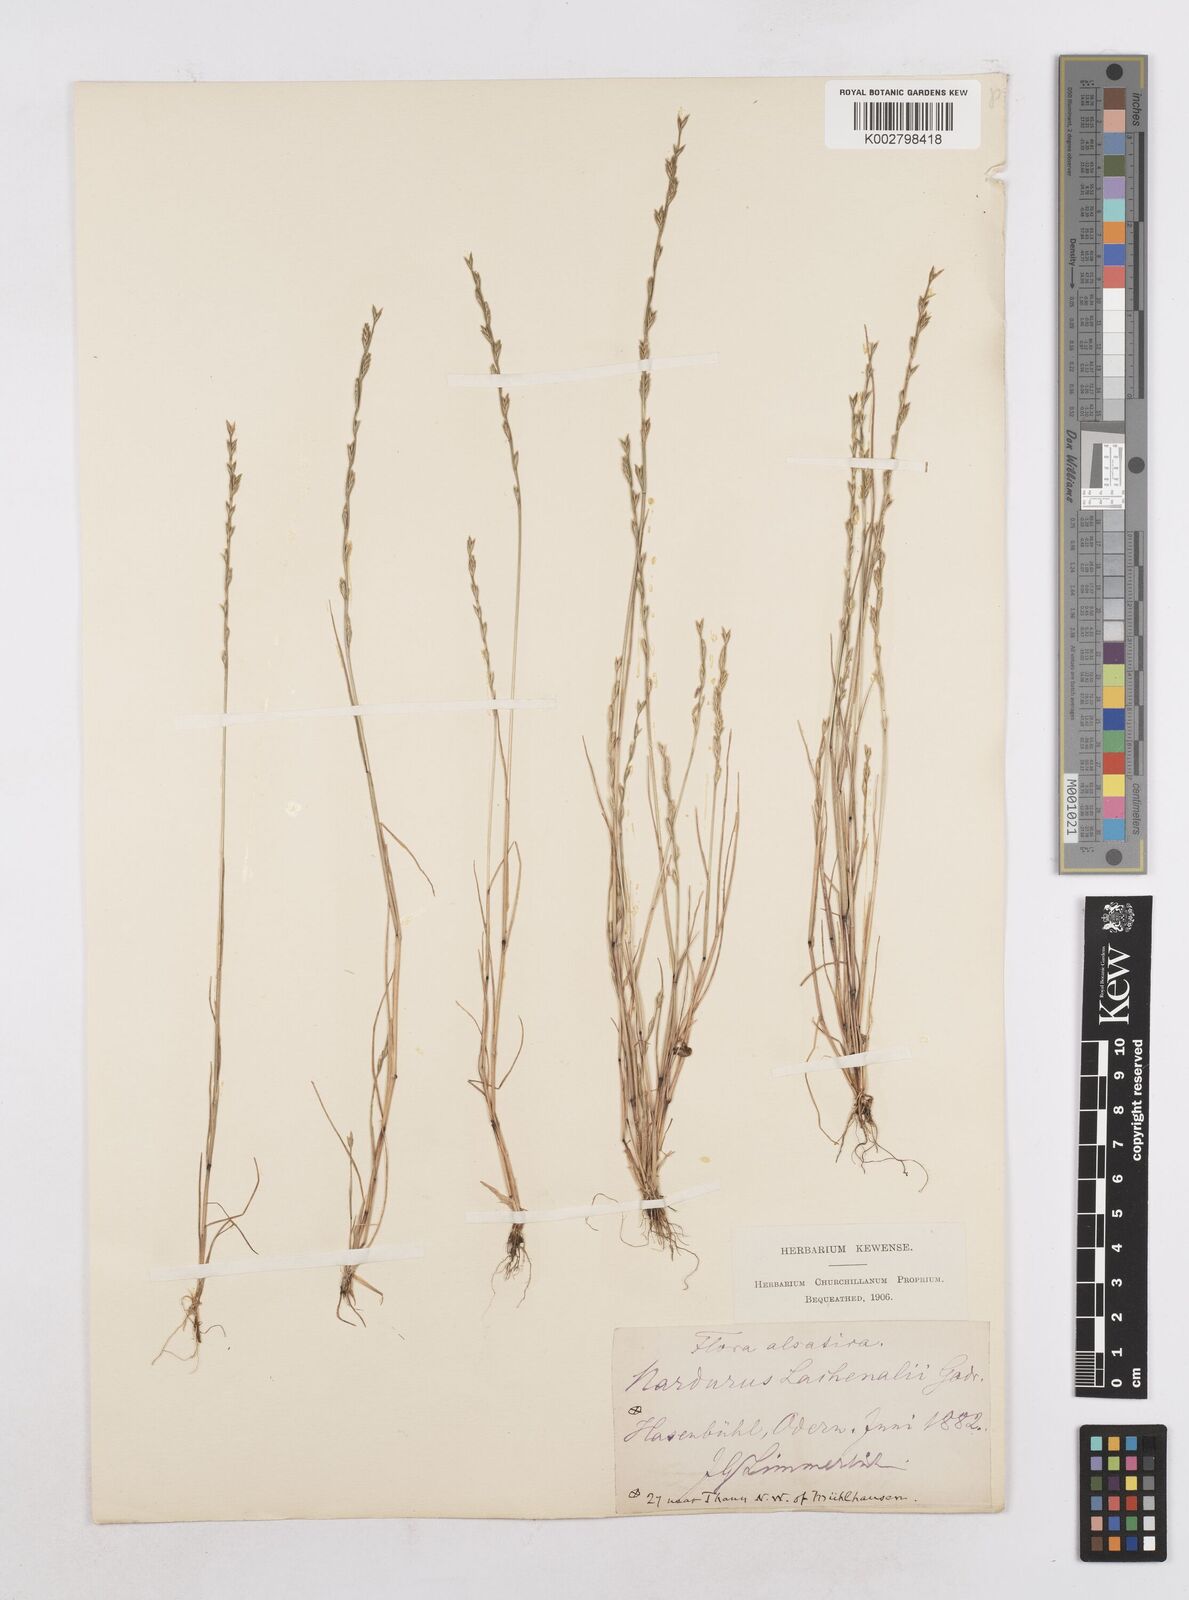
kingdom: Plantae
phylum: Tracheophyta
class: Liliopsida
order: Poales
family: Poaceae
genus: Festuca
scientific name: Festuca lachenalii
